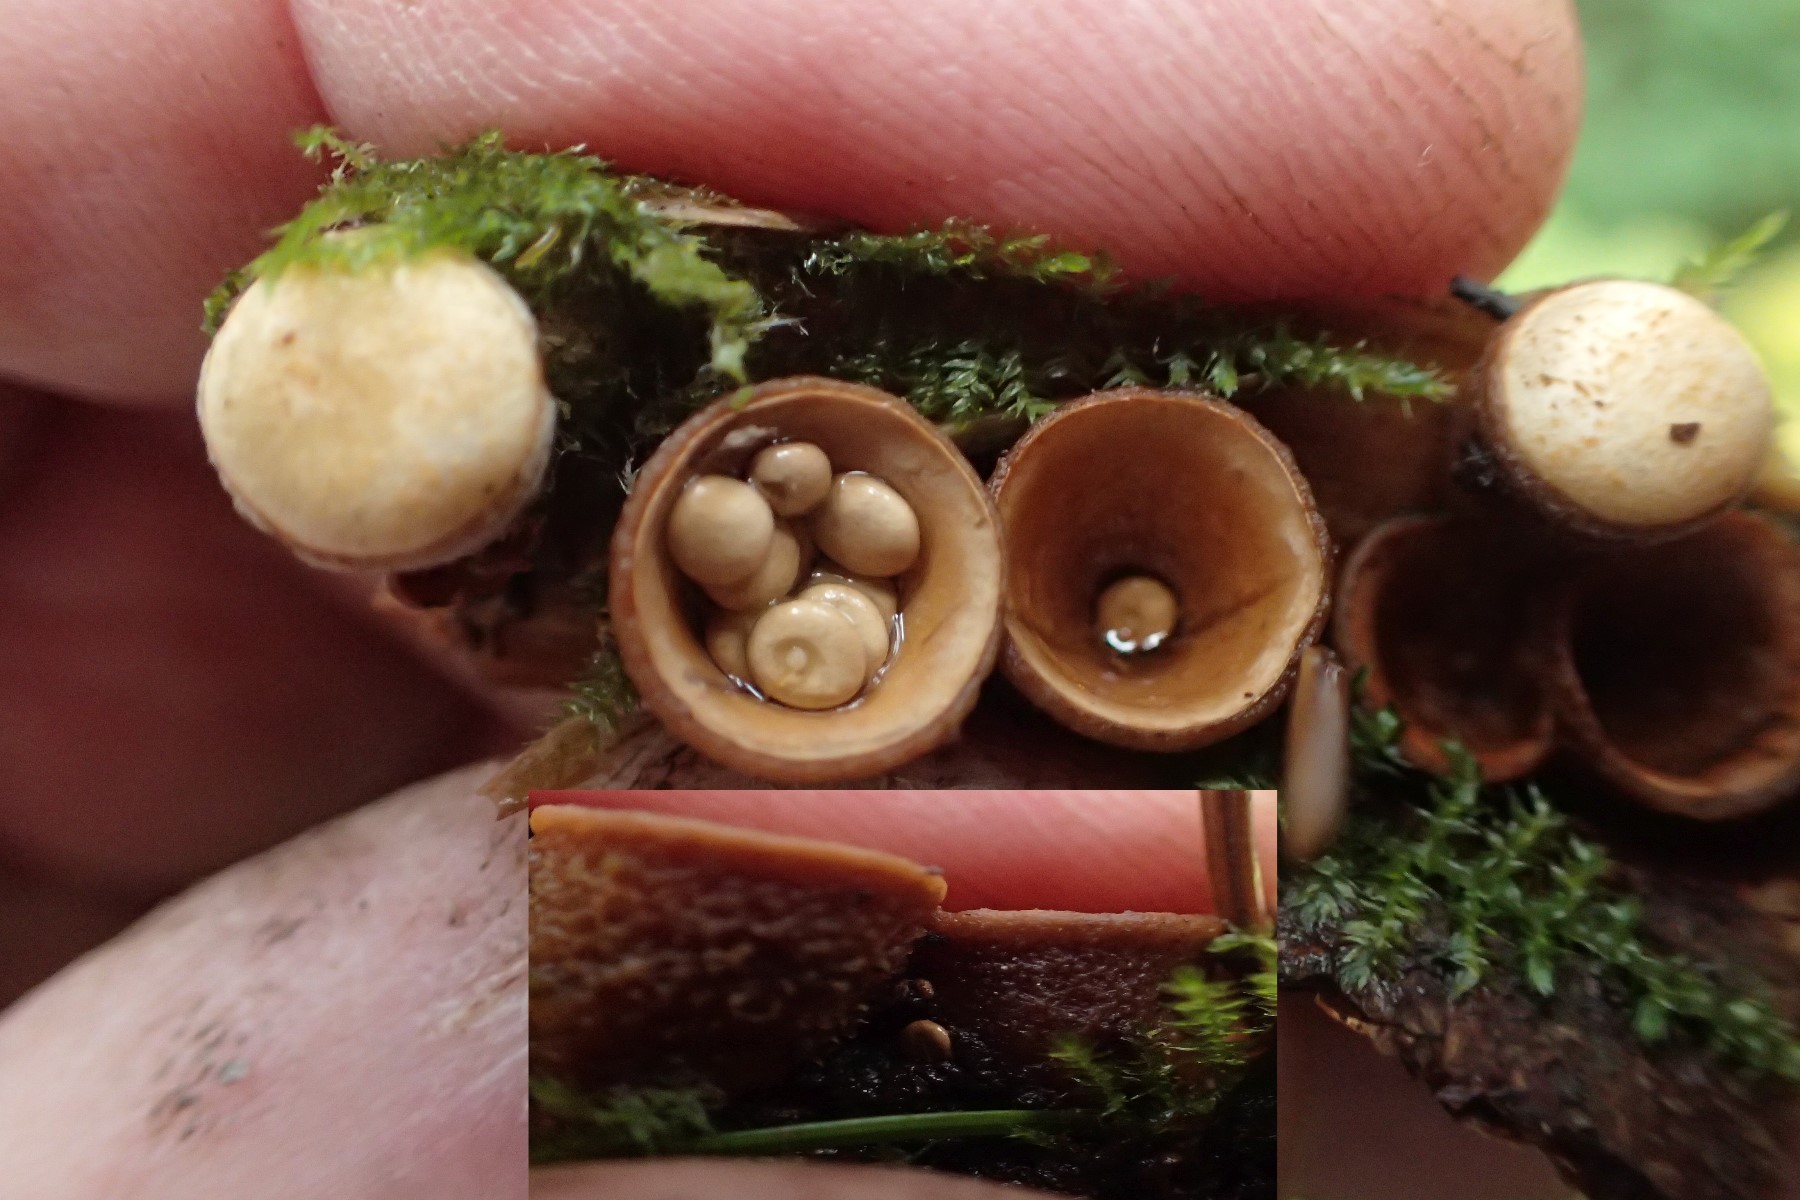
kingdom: Fungi
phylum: Basidiomycota
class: Agaricomycetes
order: Agaricales
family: Nidulariaceae
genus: Crucibulum
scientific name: Crucibulum crucibuliforme
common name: krukkesvamp
